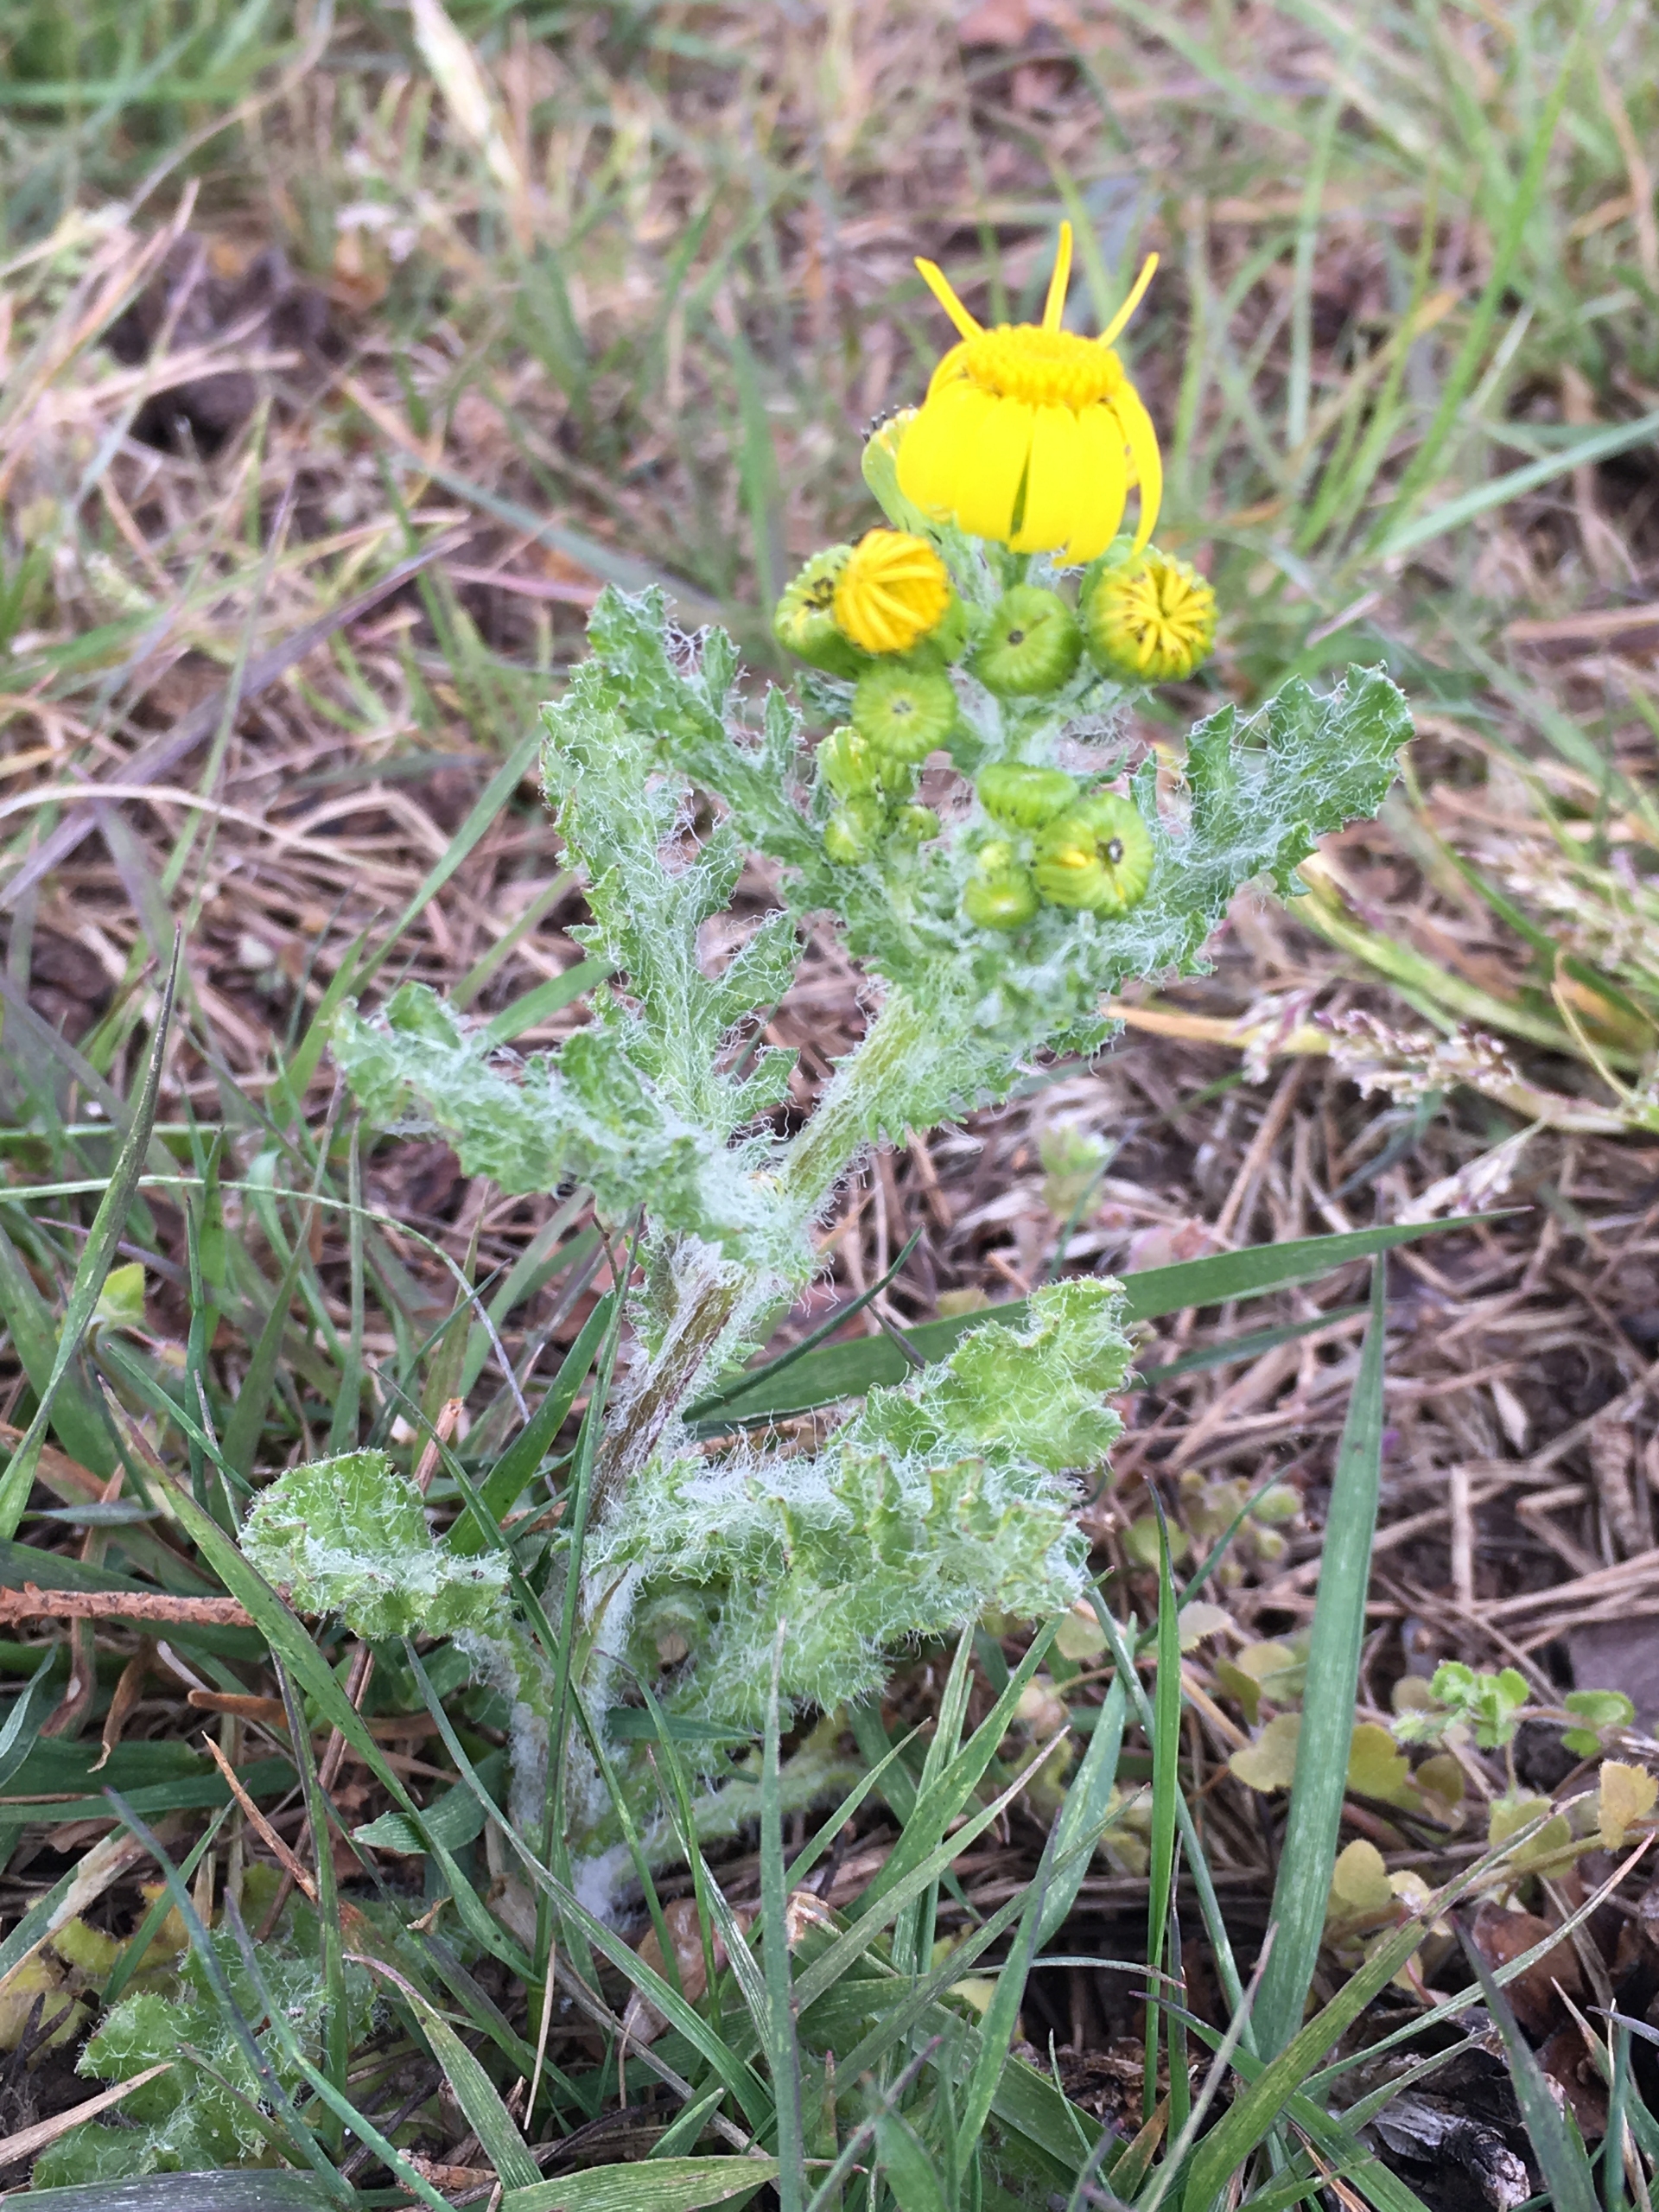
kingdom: Plantae
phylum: Tracheophyta
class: Magnoliopsida
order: Asterales
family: Asteraceae
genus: Senecio
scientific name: Senecio leucanthemifolius
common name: Vår-brandbæger
